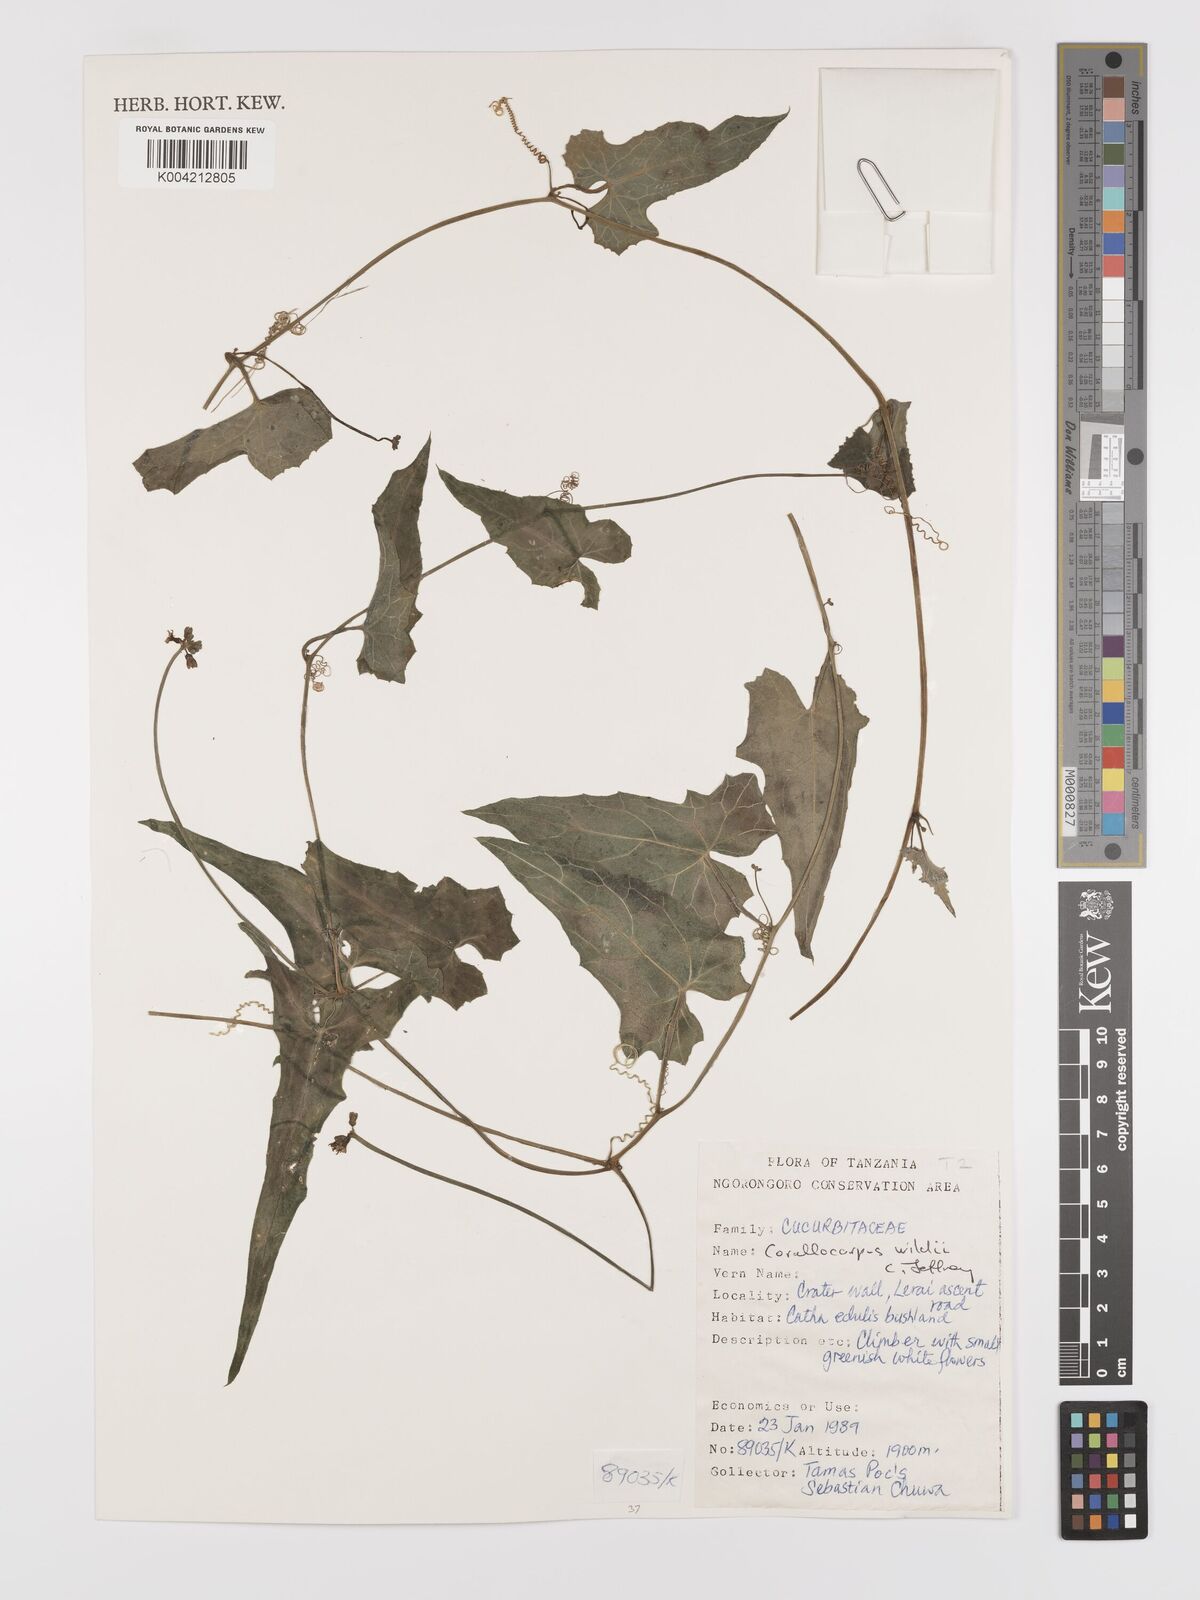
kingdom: Plantae
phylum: Tracheophyta
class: Magnoliopsida
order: Cucurbitales
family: Cucurbitaceae
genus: Corallocarpus
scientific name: Corallocarpus tenuissimus
